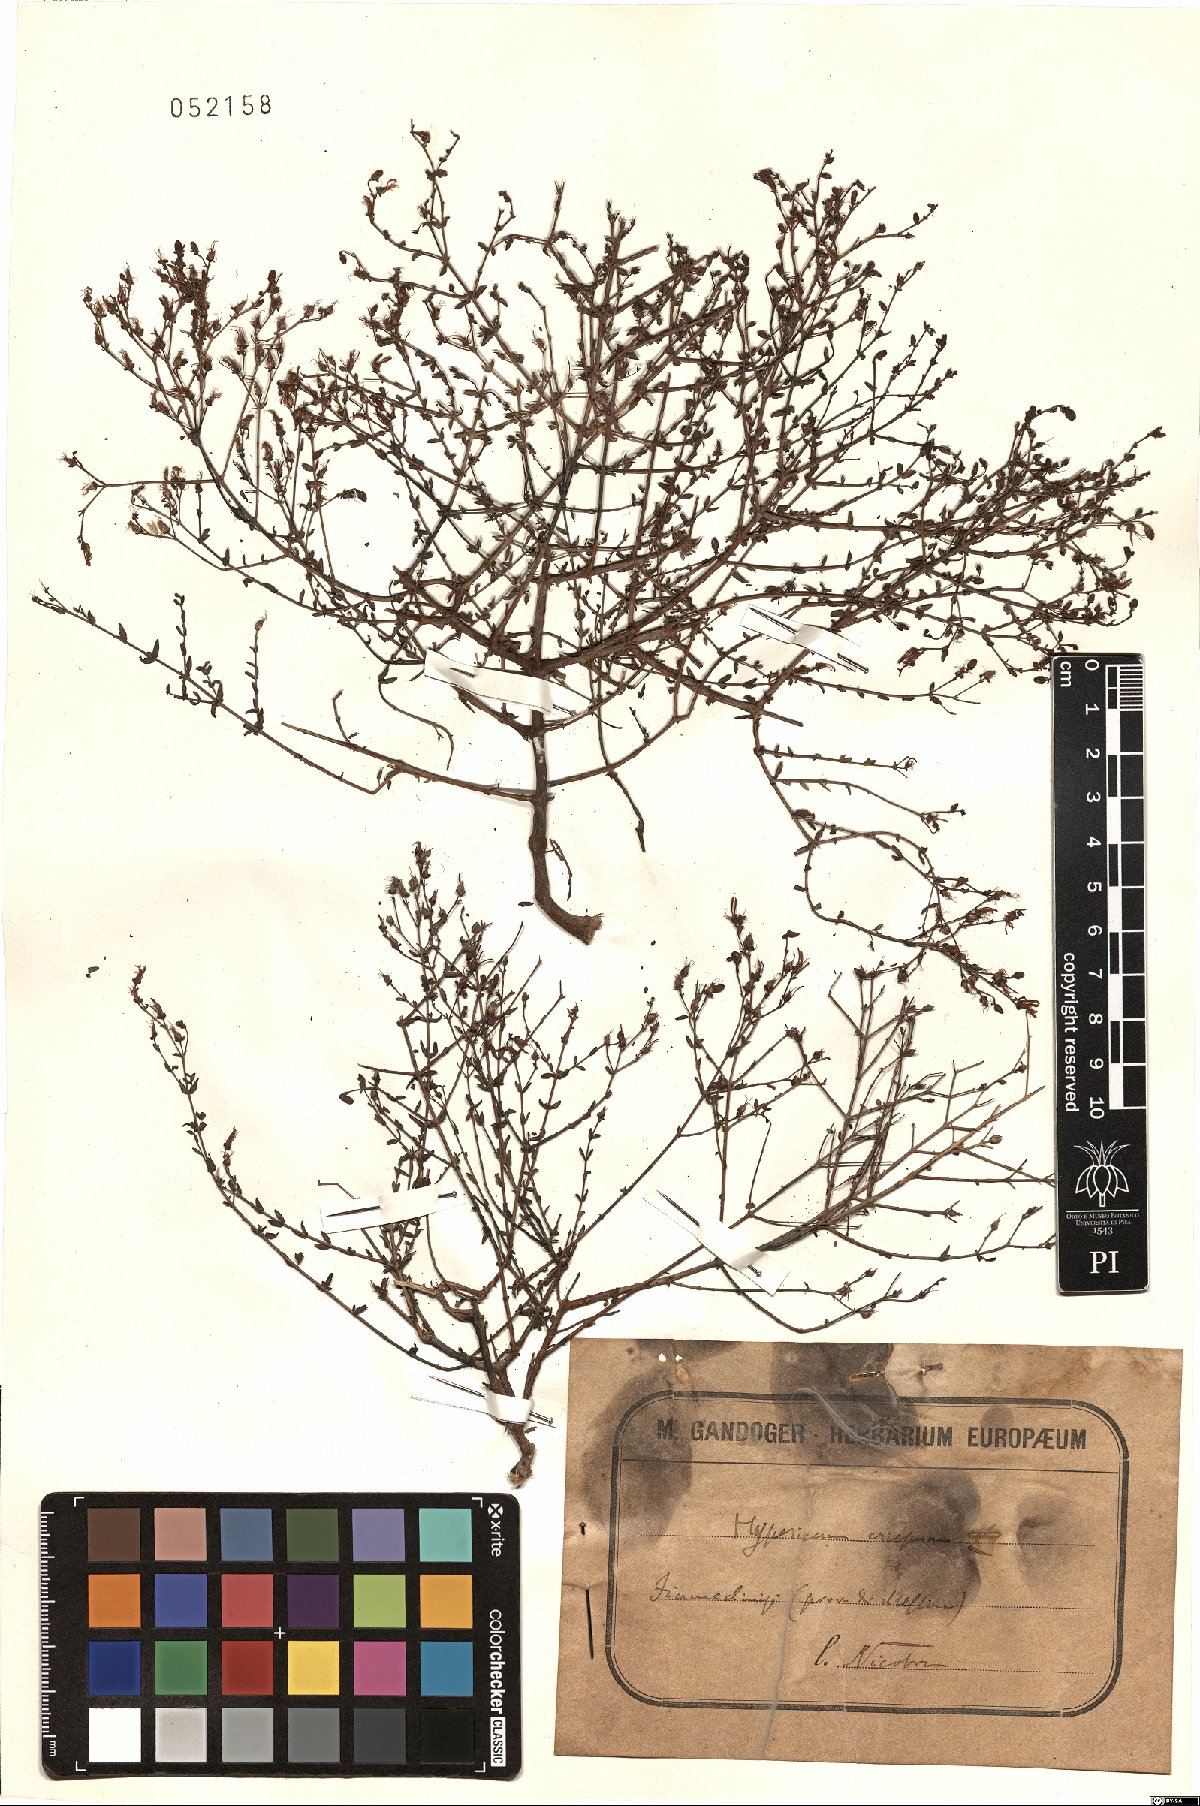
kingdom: Plantae
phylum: Tracheophyta
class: Magnoliopsida
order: Malpighiales
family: Hypericaceae
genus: Hypericum
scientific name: Hypericum triquetrifolium
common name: Tangled hypericum
